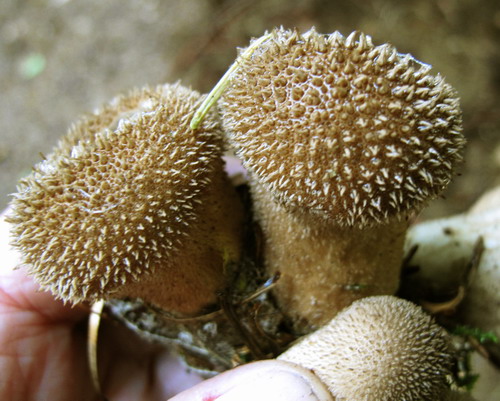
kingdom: Fungi
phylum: Basidiomycota
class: Agaricomycetes
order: Agaricales
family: Lycoperdaceae
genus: Lycoperdon
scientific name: Lycoperdon nigrescens
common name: sortagtig støvbold
